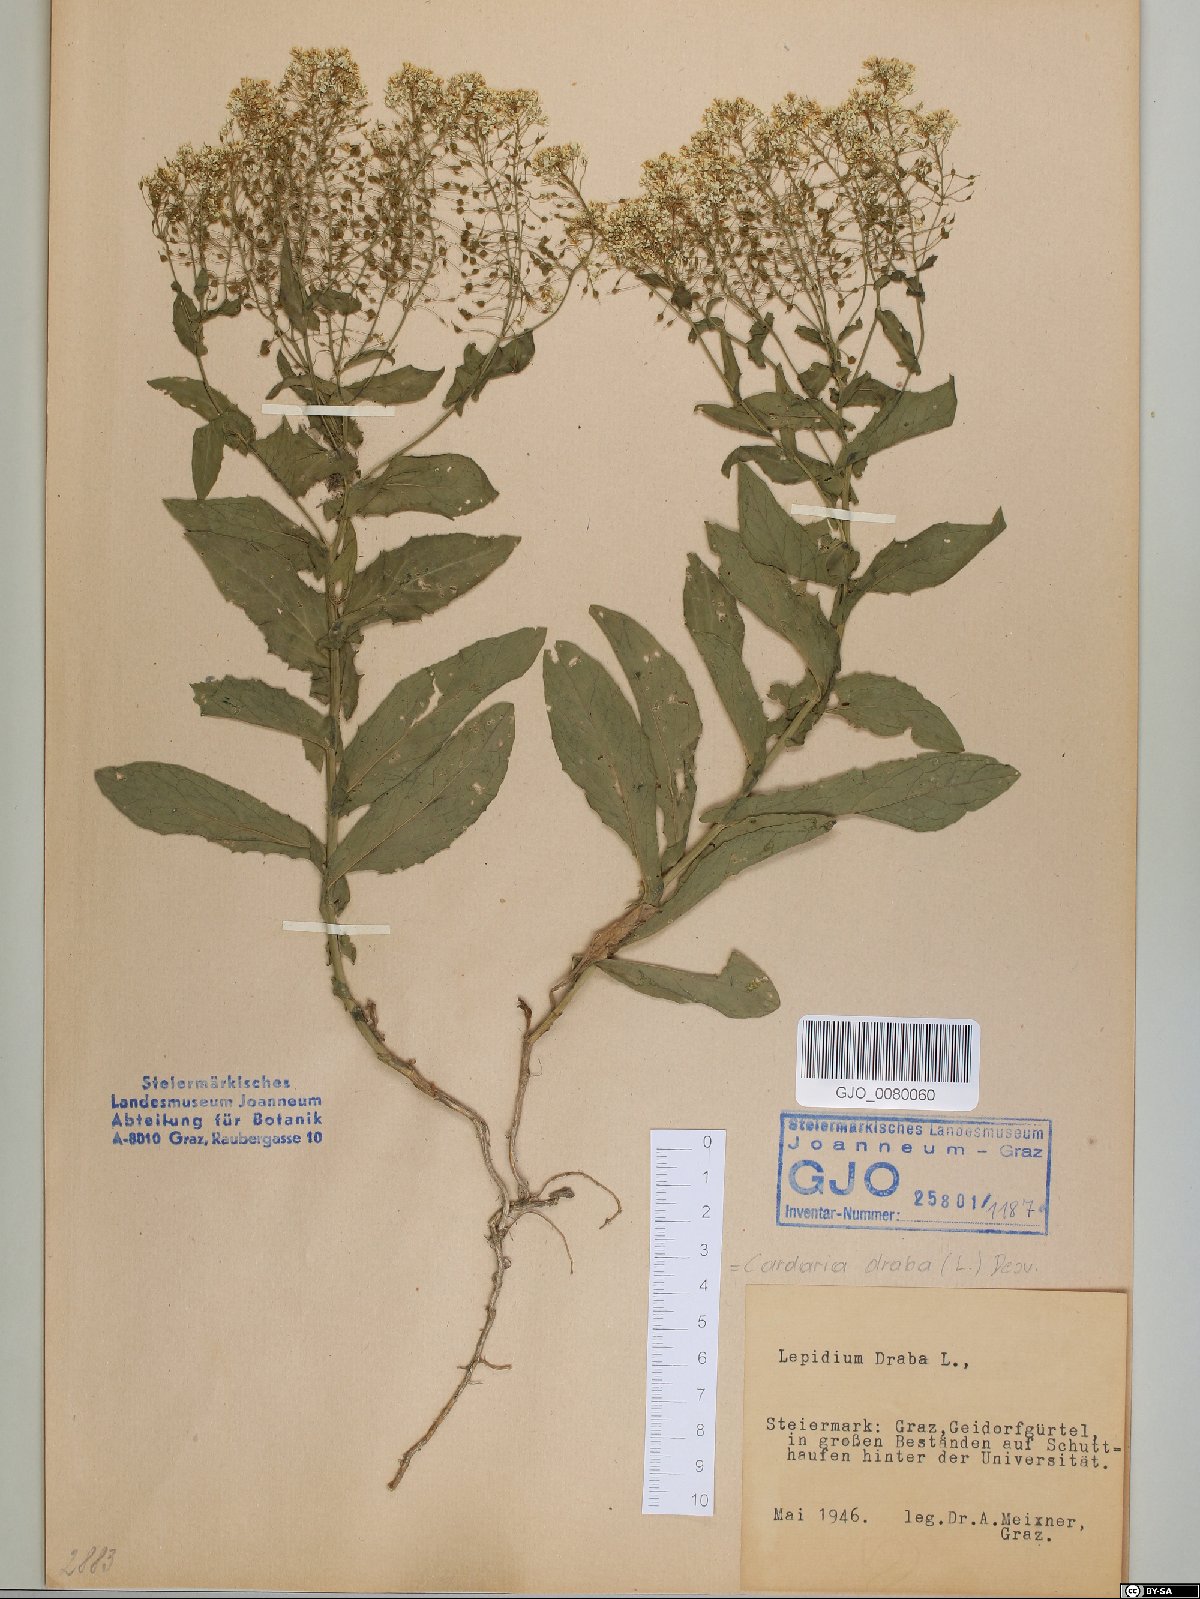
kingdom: Plantae
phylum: Tracheophyta
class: Magnoliopsida
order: Brassicales
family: Brassicaceae
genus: Lepidium
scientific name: Lepidium draba
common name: Hoary cress
